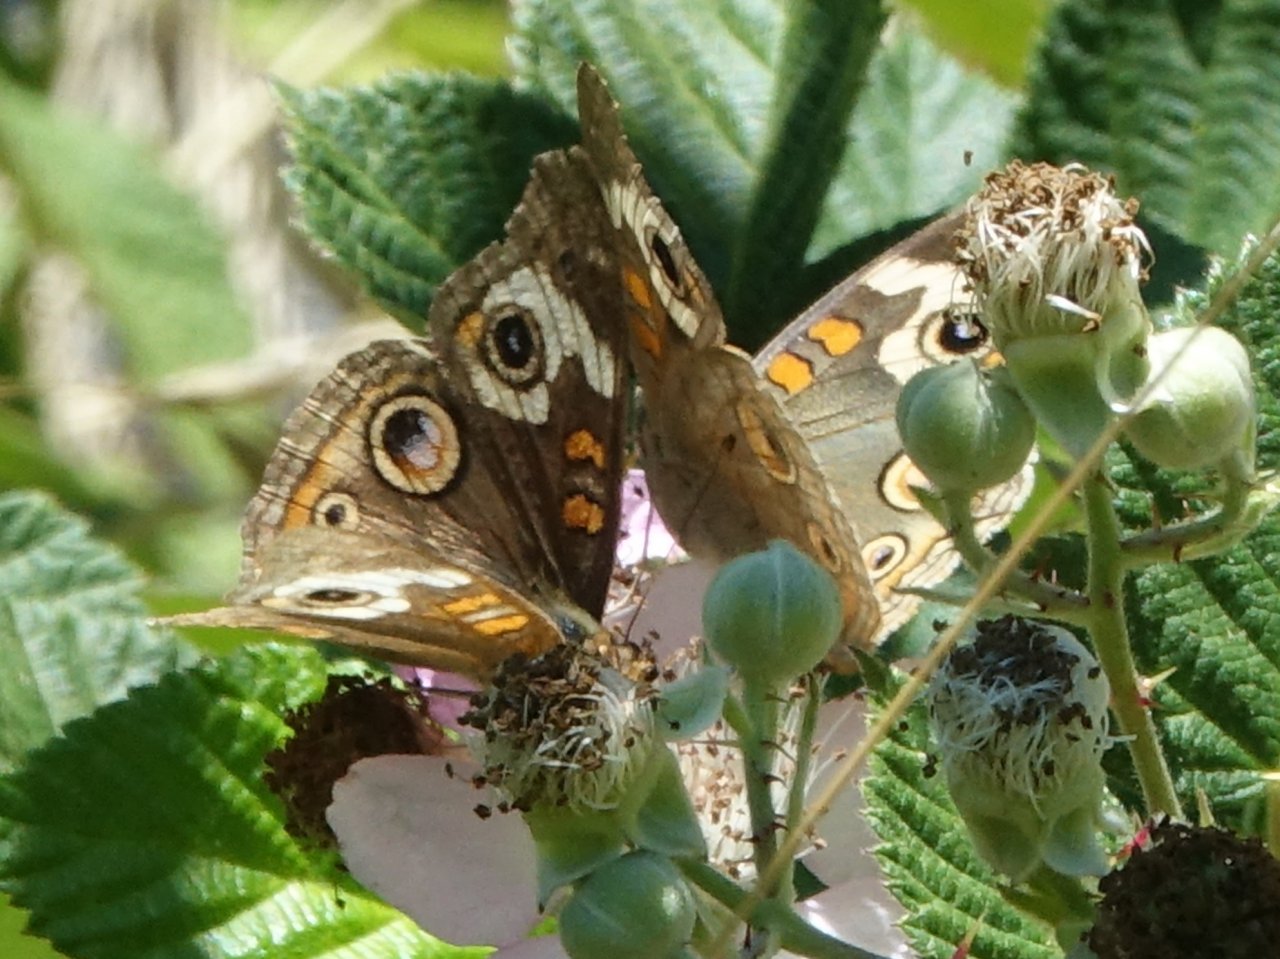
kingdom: Animalia
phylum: Arthropoda
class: Insecta
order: Lepidoptera
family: Nymphalidae
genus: Junonia
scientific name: Junonia coenia
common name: Common Buckeye
